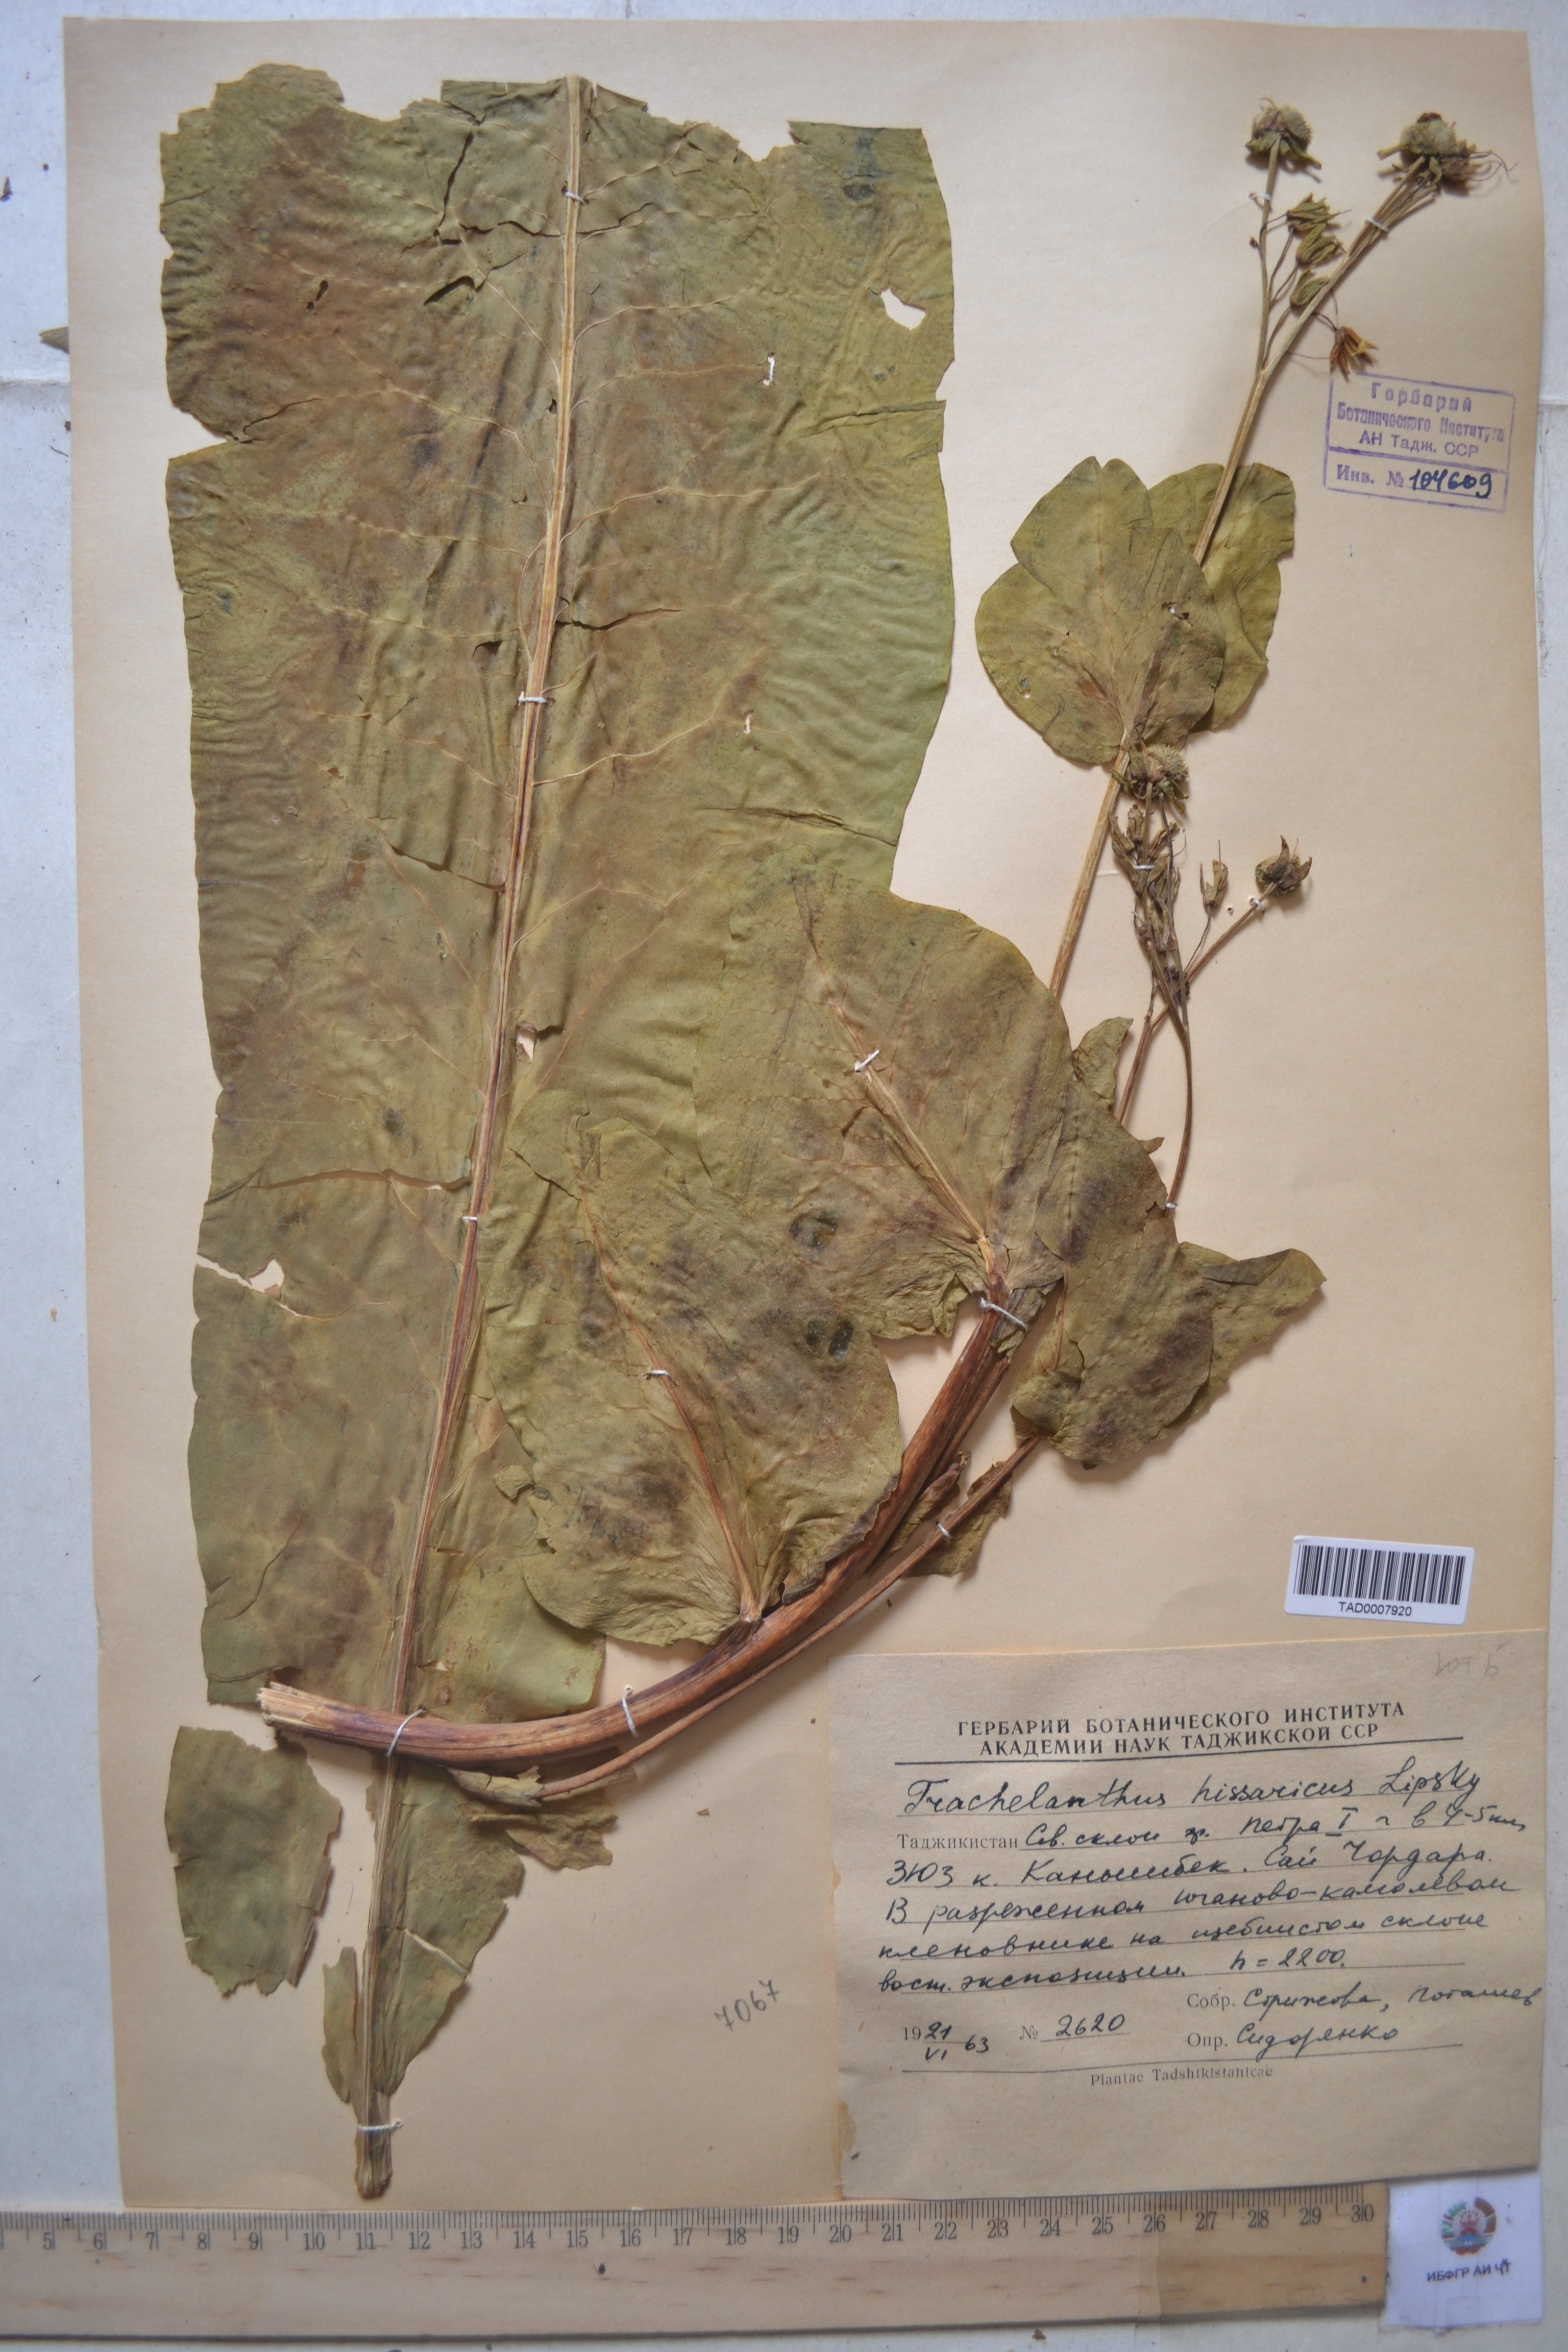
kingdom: Plantae
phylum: Tracheophyta
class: Magnoliopsida
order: Boraginales
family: Boraginaceae
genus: Lindelofia
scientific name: Lindelofia hissarica
